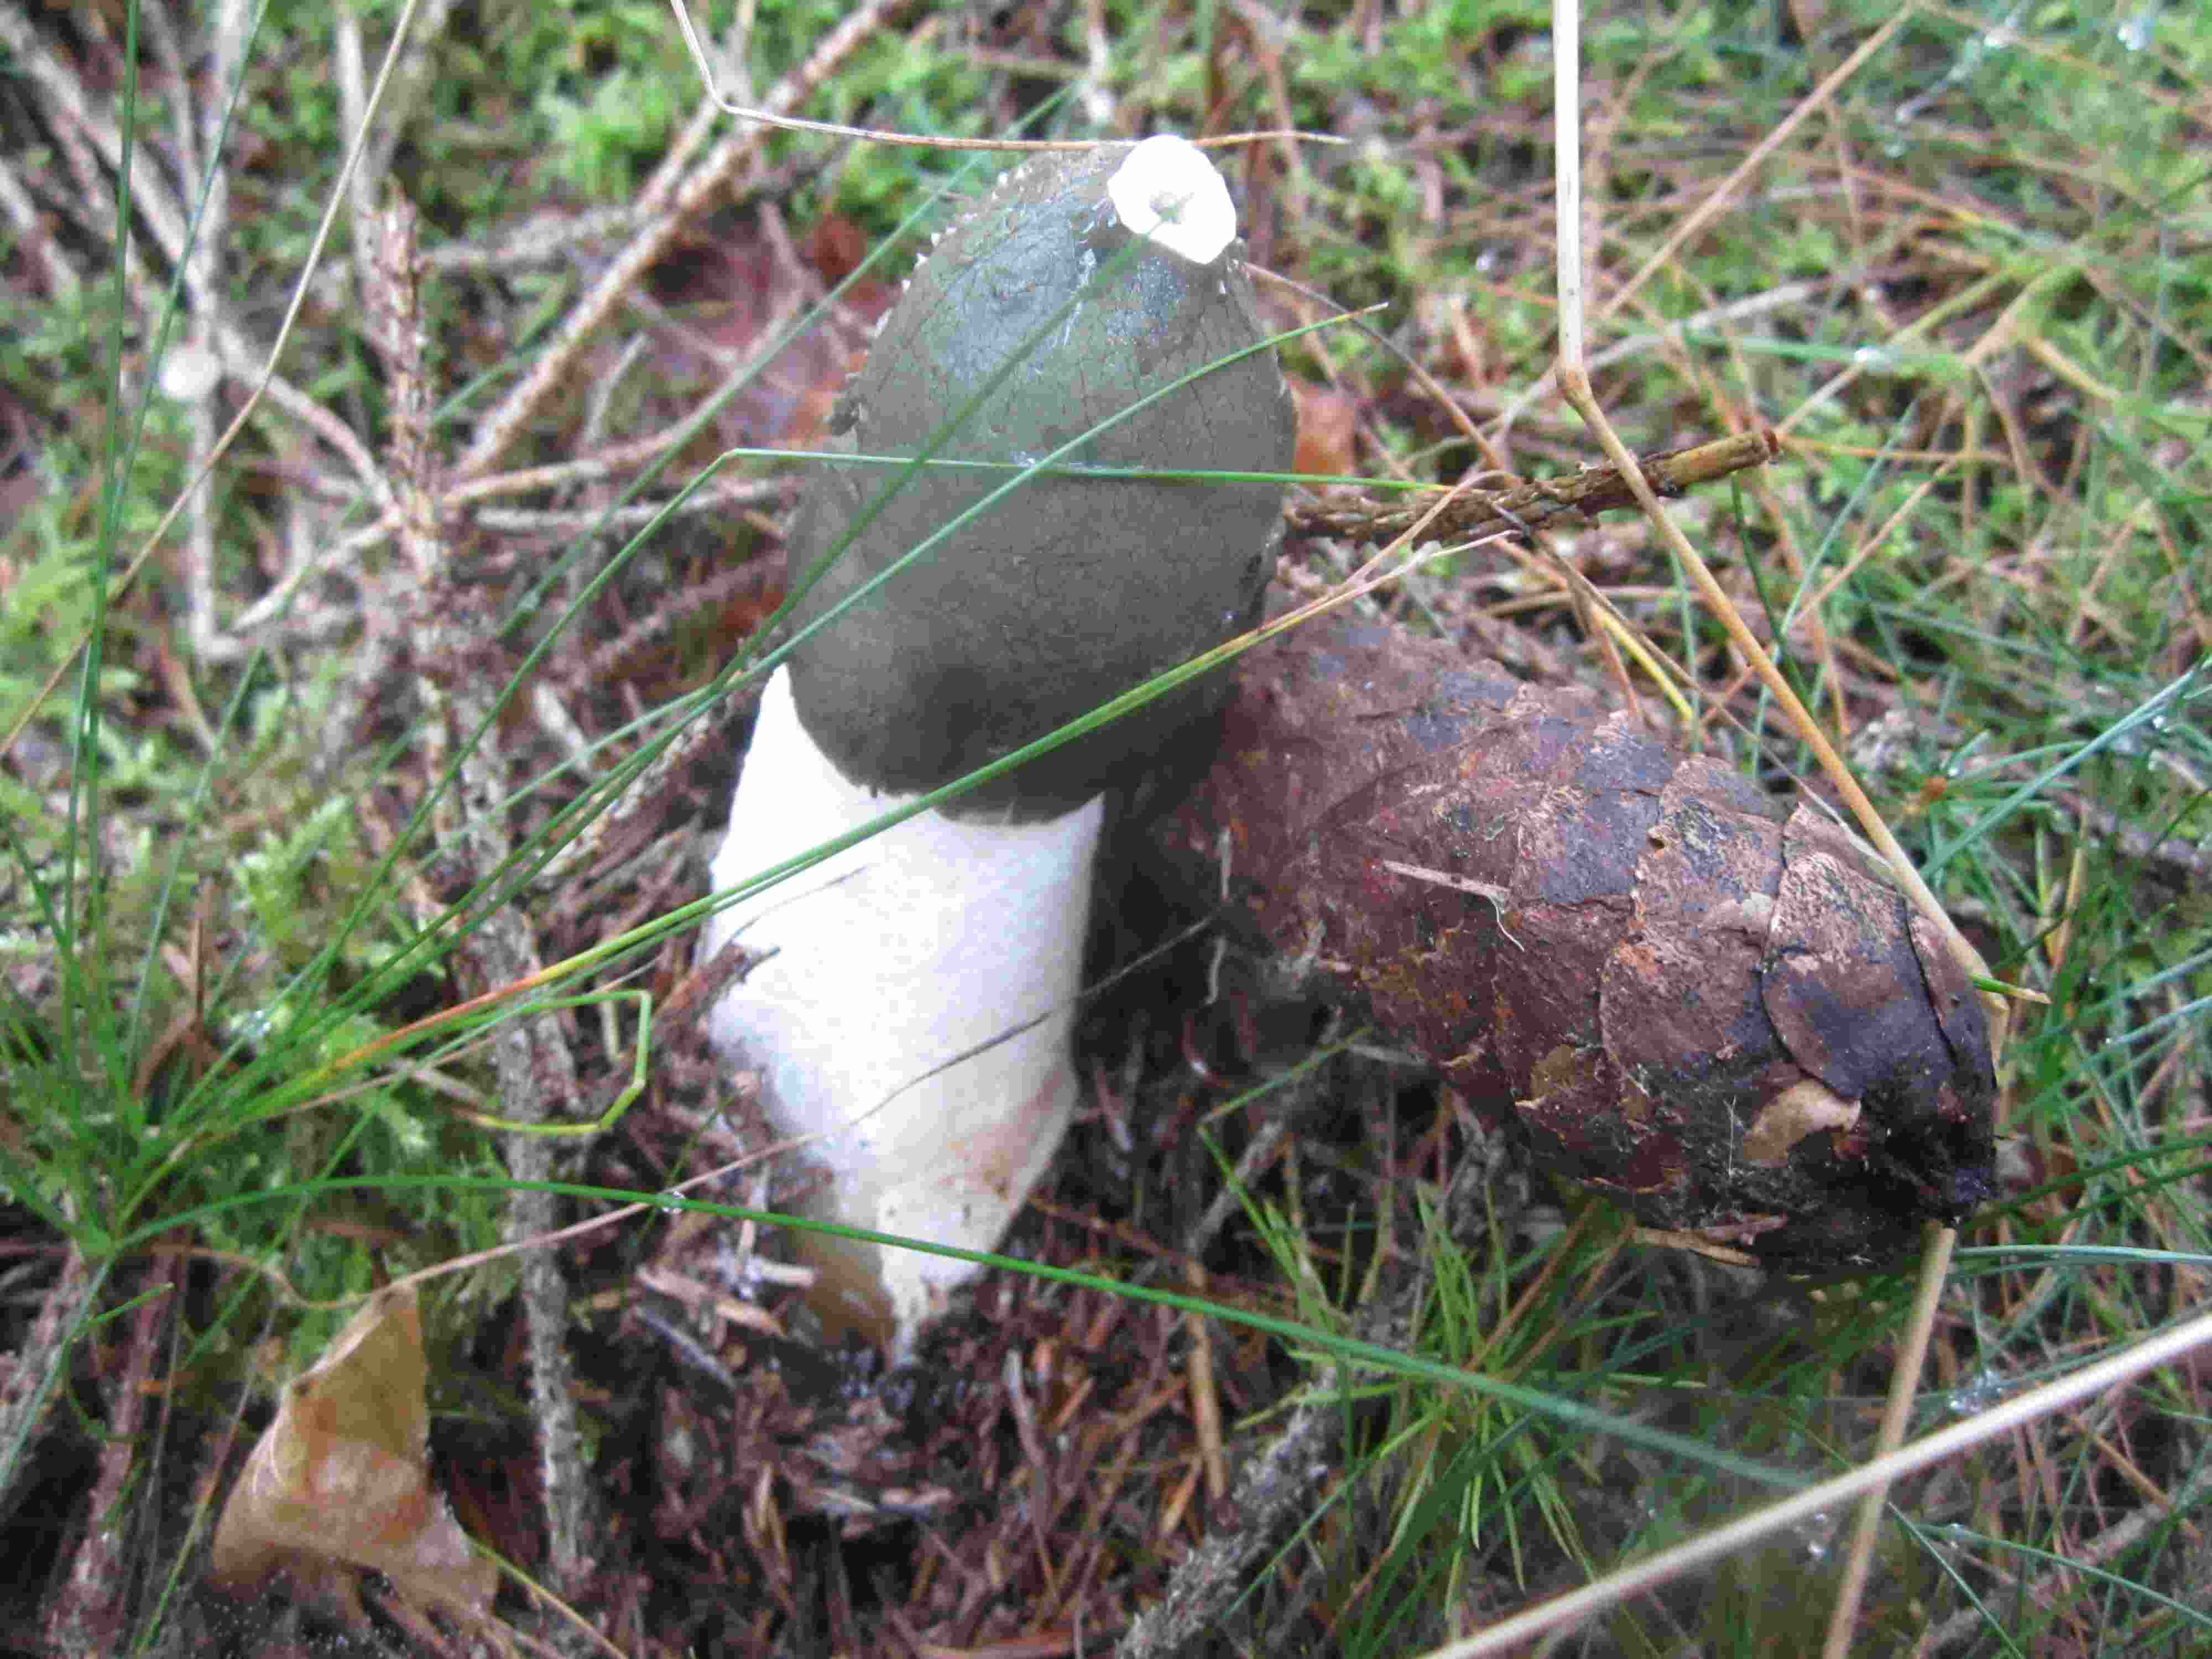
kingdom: Fungi
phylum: Basidiomycota
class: Agaricomycetes
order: Phallales
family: Phallaceae
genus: Phallus
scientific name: Phallus impudicus
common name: almindelig stinksvamp
